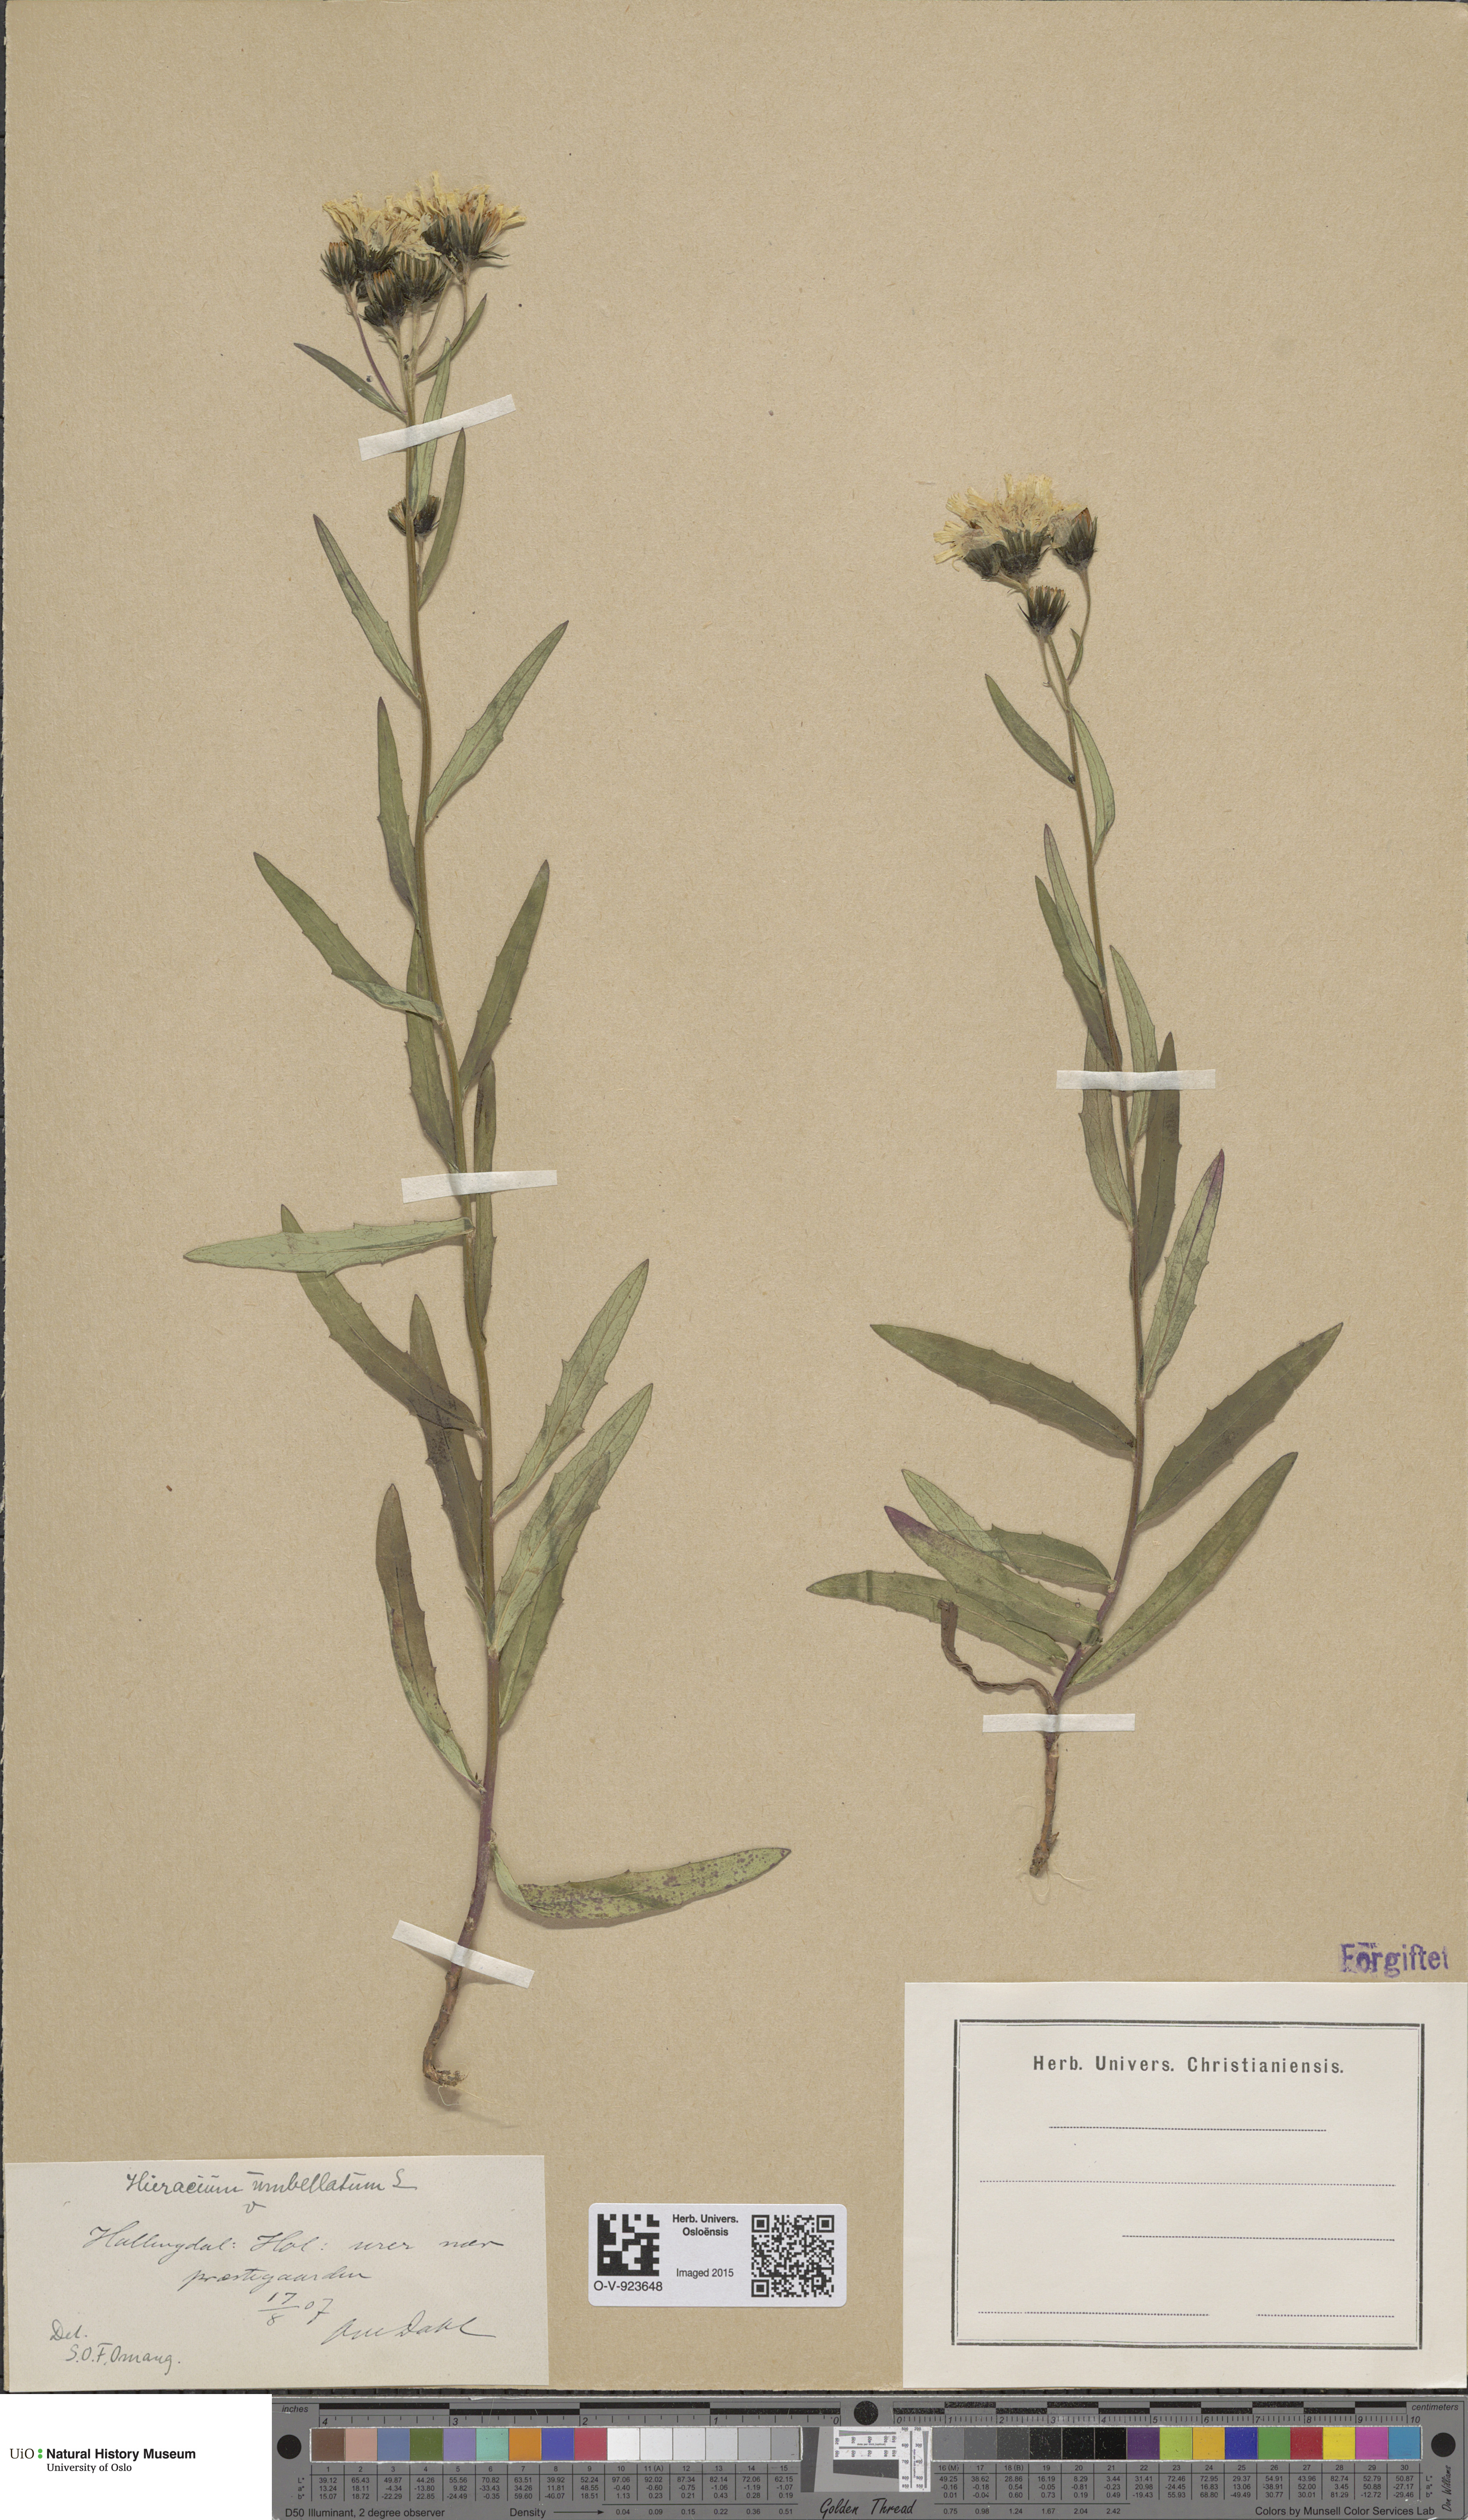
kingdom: Plantae
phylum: Tracheophyta
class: Magnoliopsida
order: Asterales
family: Asteraceae
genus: Hieracium
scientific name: Hieracium umbellatum
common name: Northern hawkweed
